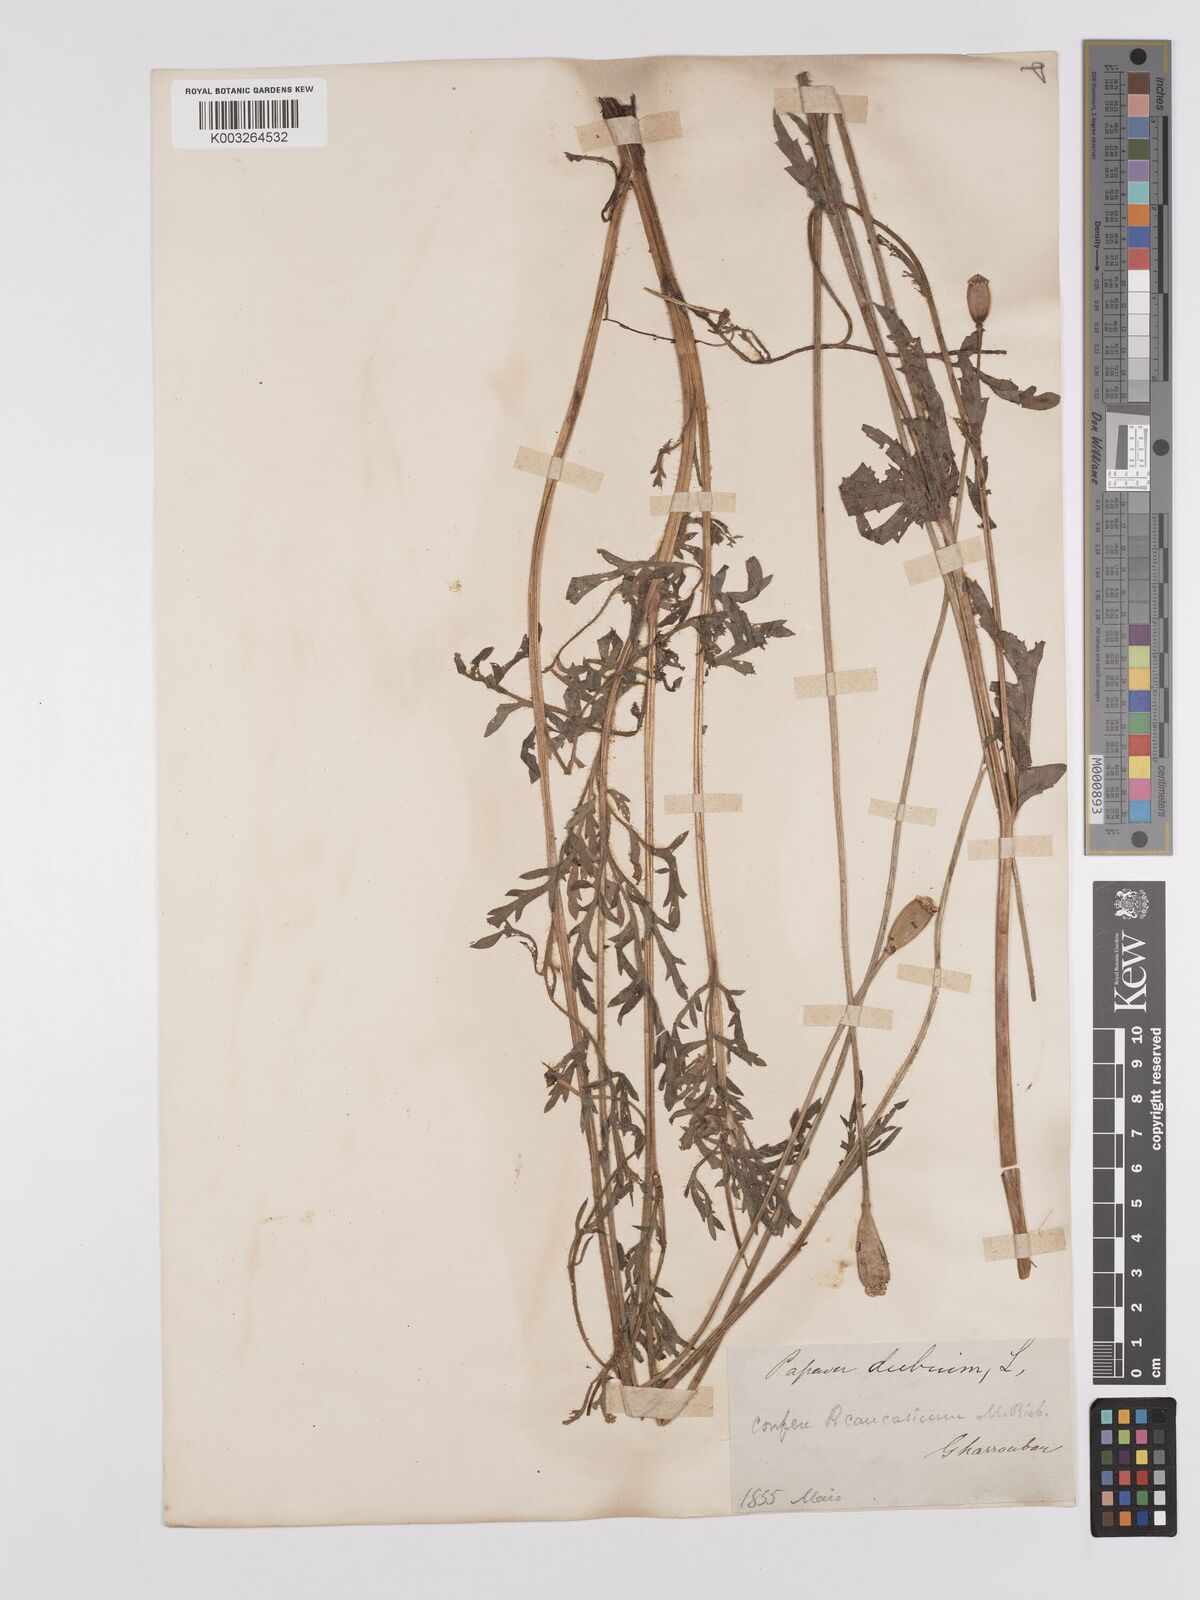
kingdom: Plantae
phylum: Tracheophyta
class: Magnoliopsida
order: Ranunculales
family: Papaveraceae
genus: Papaver
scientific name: Papaver dubium
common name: Long-headed poppy
